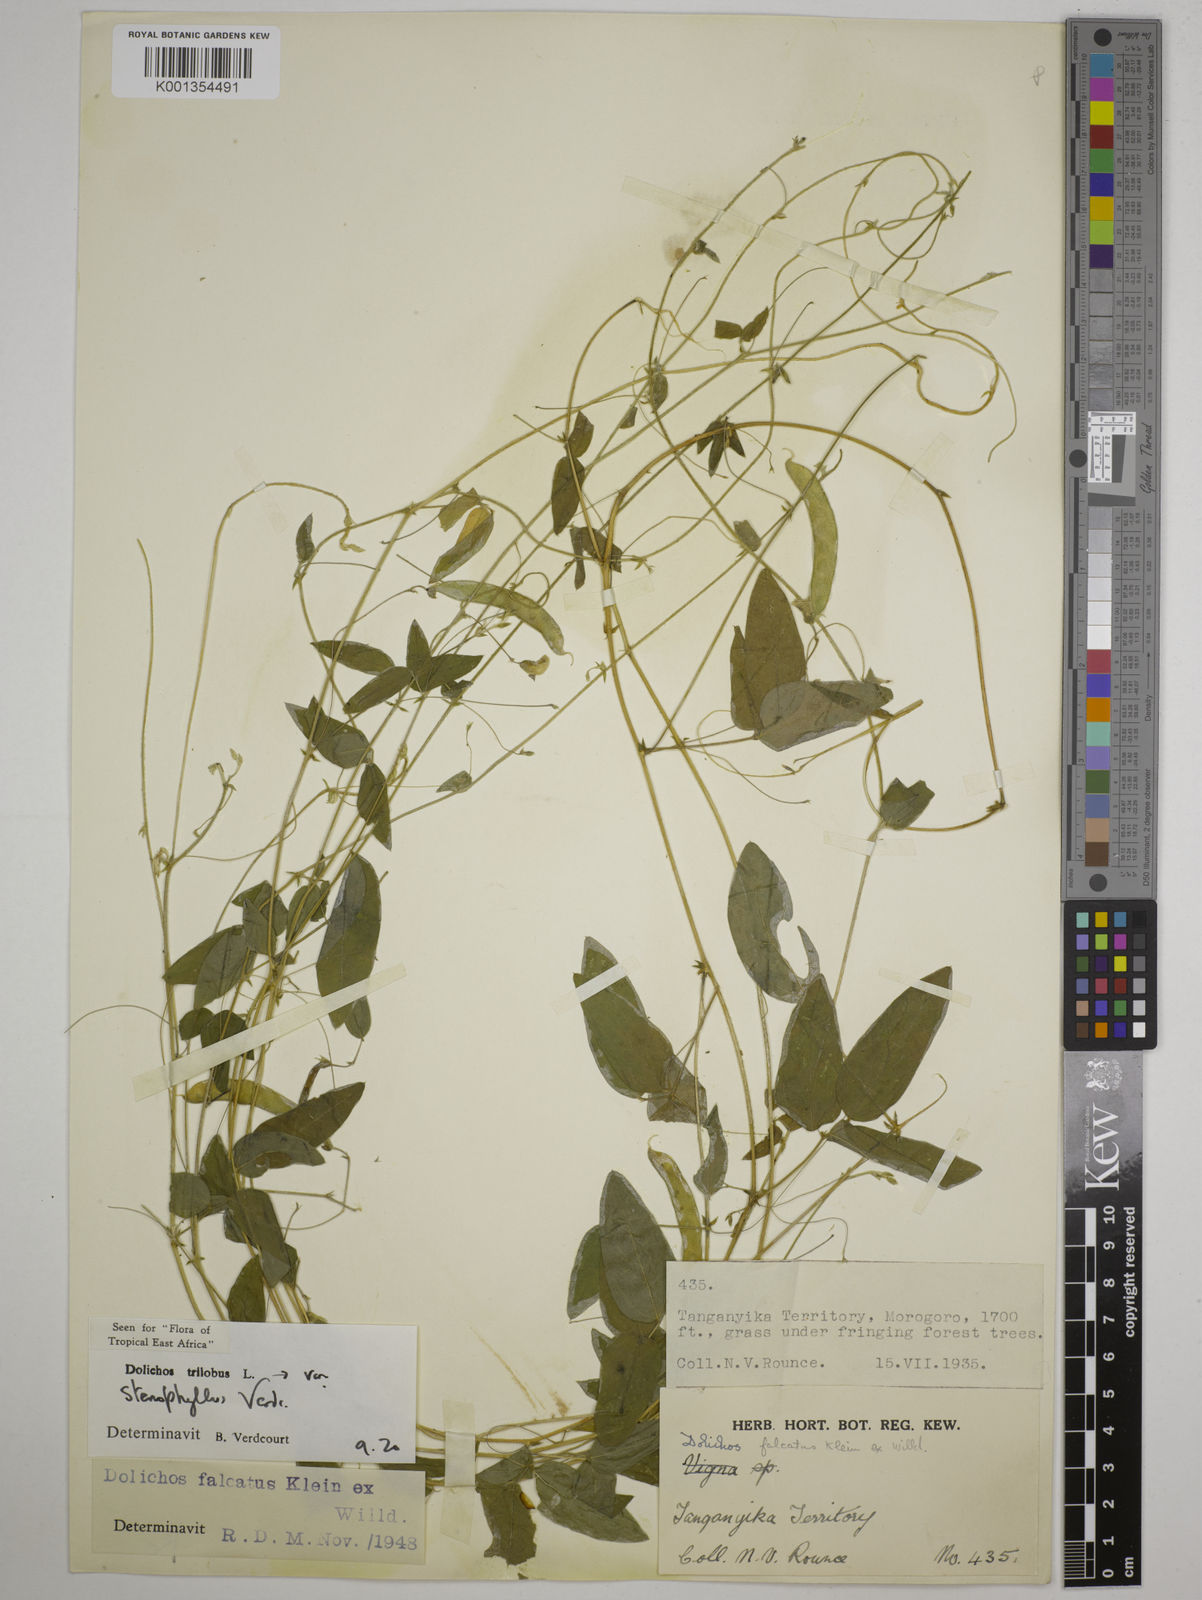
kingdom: Plantae
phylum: Tracheophyta
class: Magnoliopsida
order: Fabales
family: Fabaceae
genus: Dolichos
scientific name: Dolichos
